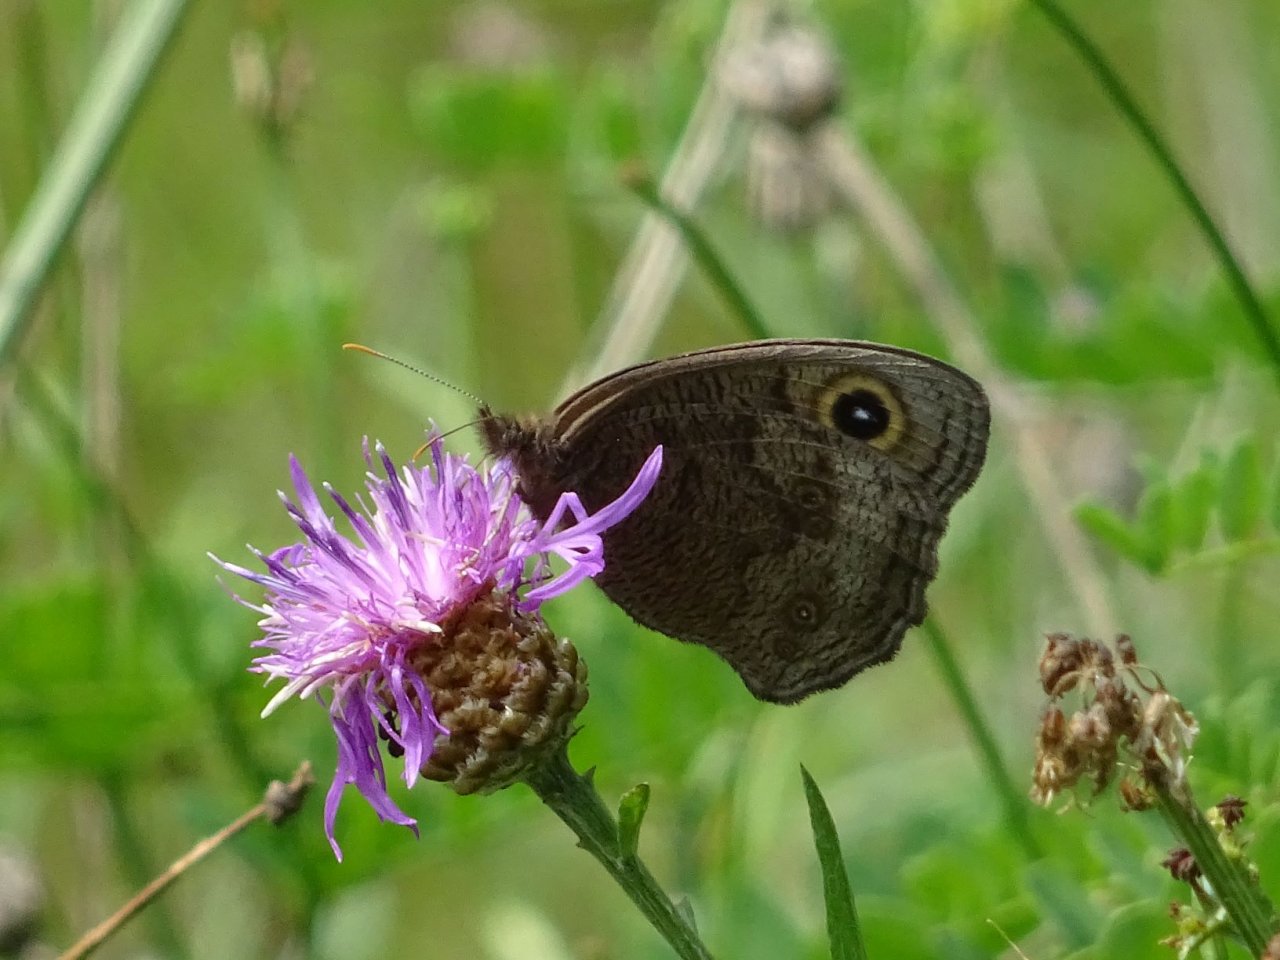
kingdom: Animalia
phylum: Arthropoda
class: Insecta
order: Lepidoptera
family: Nymphalidae
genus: Cercyonis
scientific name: Cercyonis pegala
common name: Common Wood-Nymph
